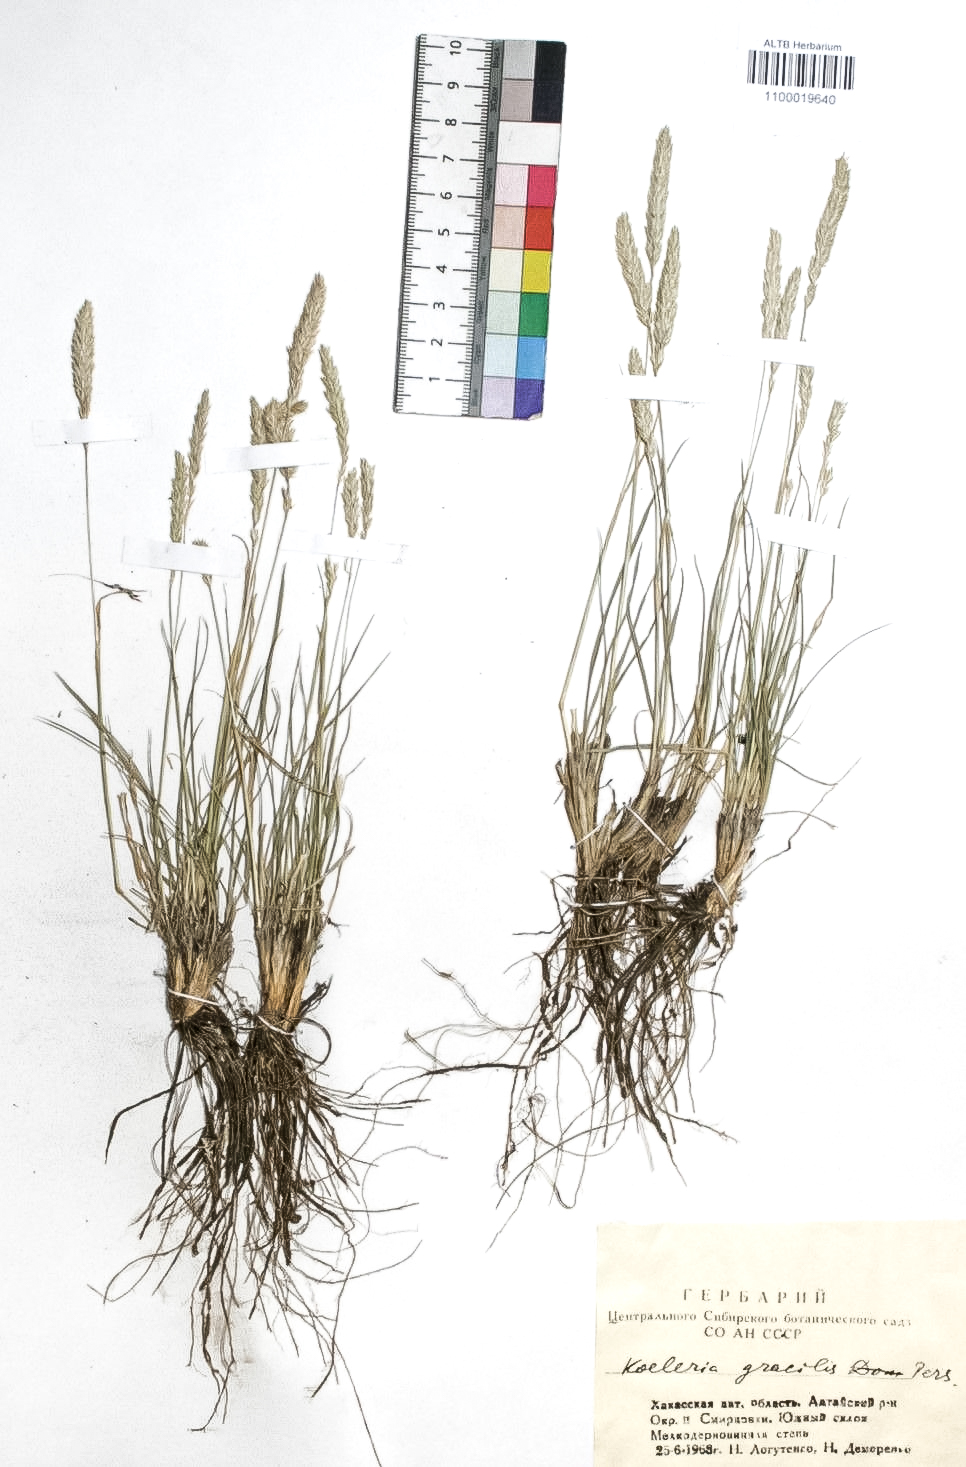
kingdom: Plantae
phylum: Tracheophyta
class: Liliopsida
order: Poales
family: Poaceae
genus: Koeleria
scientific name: Koeleria macrantha
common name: Crested hair-grass
